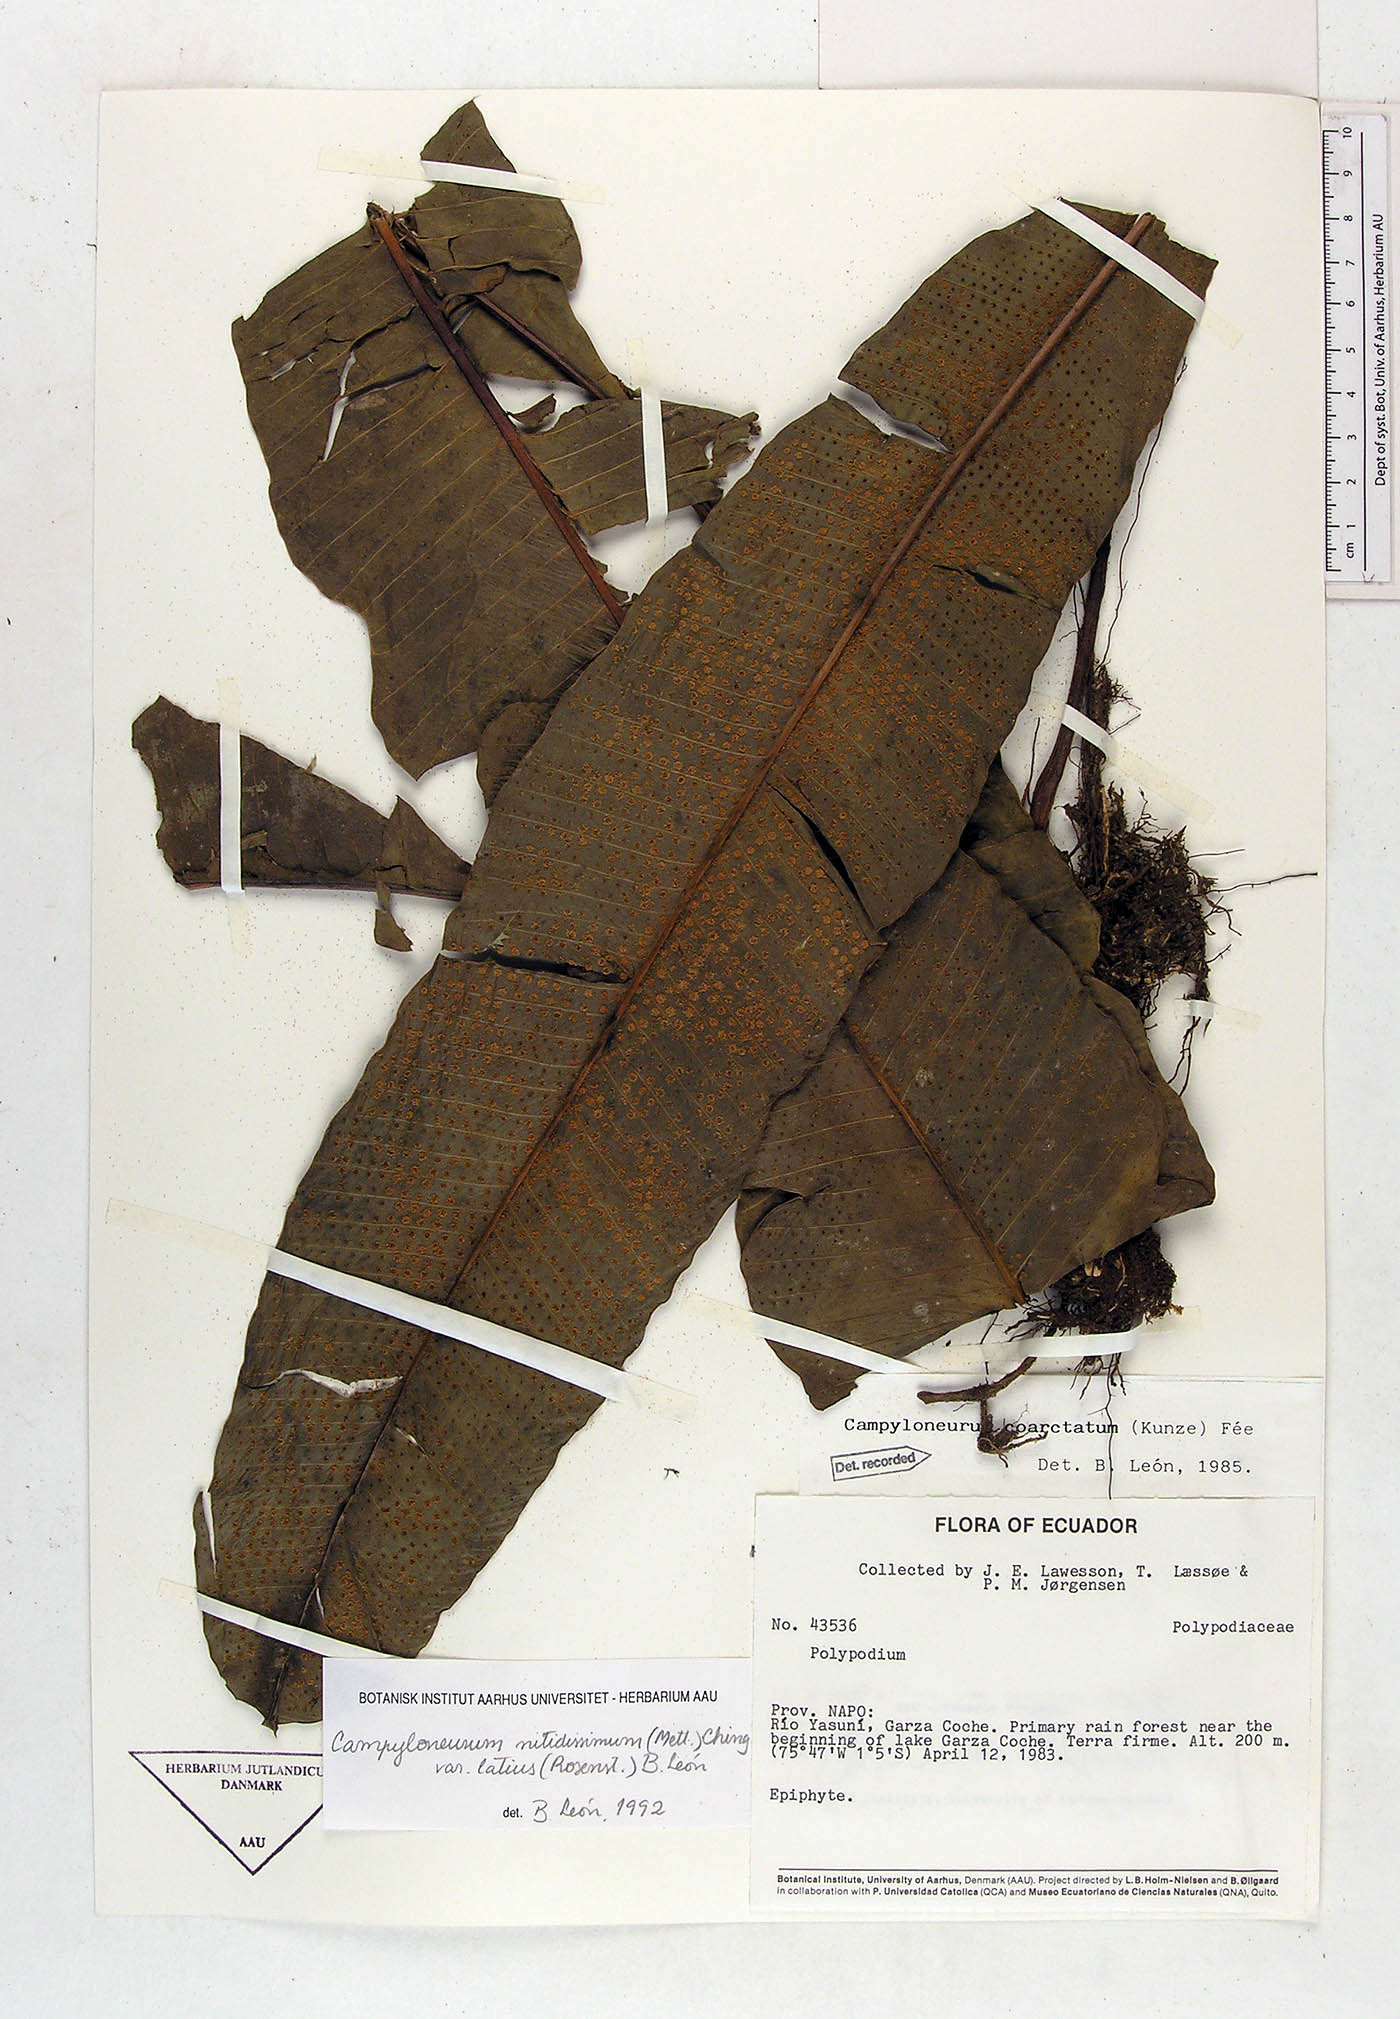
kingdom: Plantae
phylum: Tracheophyta
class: Polypodiopsida
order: Polypodiales
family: Polypodiaceae
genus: Campyloneurum
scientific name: Campyloneurum nitidissimum
